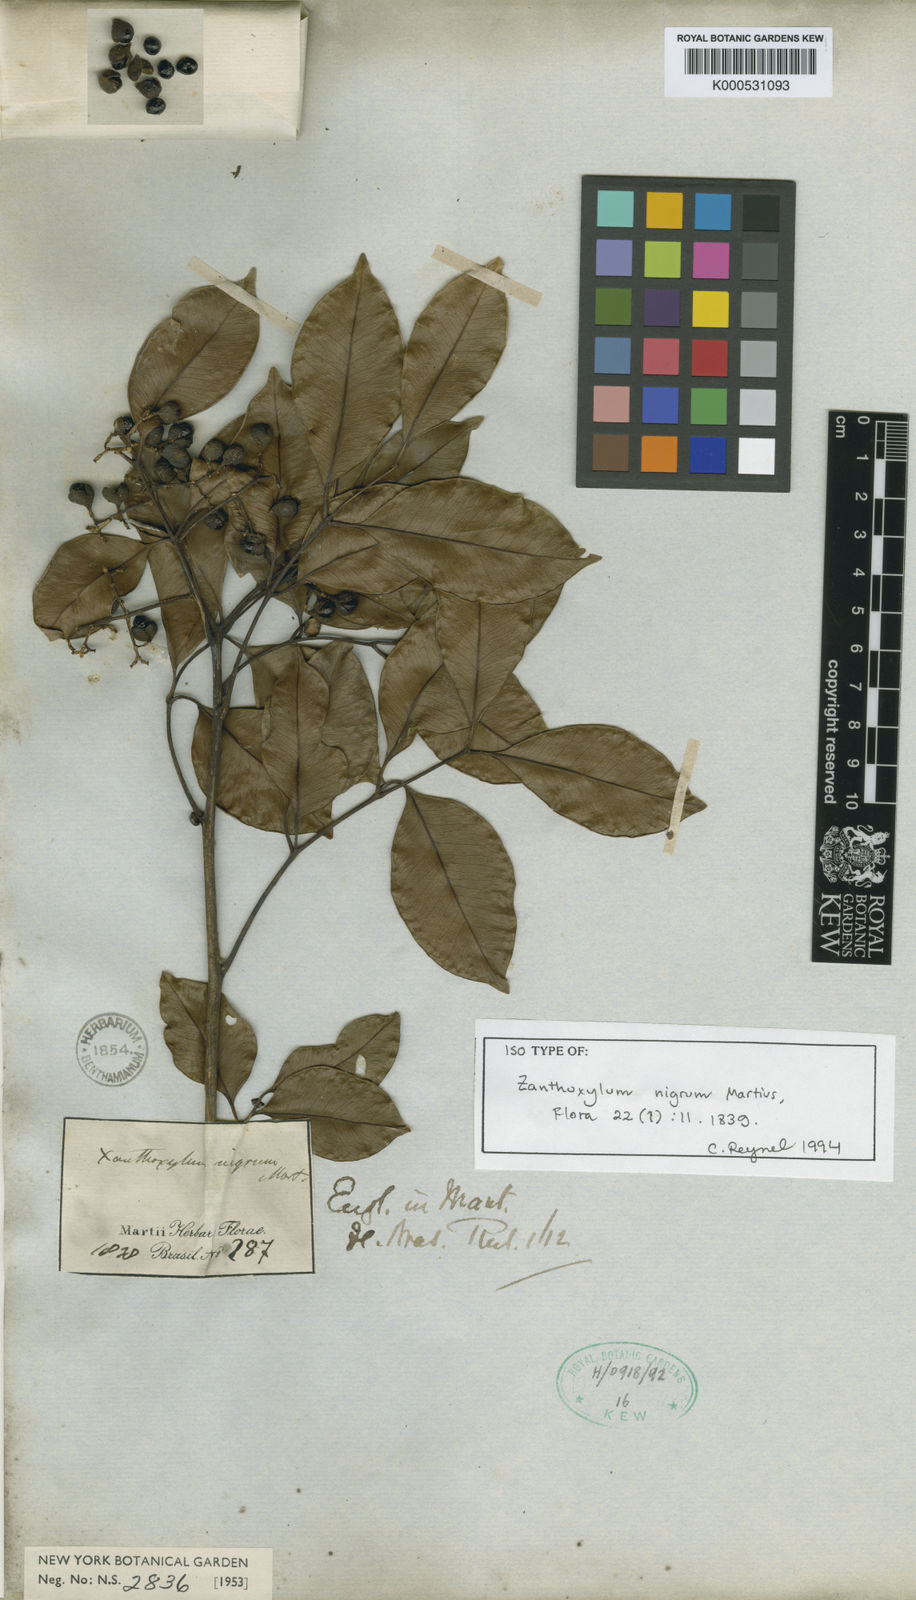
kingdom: Plantae
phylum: Tracheophyta
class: Magnoliopsida
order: Sapindales
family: Rutaceae
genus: Zanthoxylum
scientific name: Zanthoxylum nigrum
